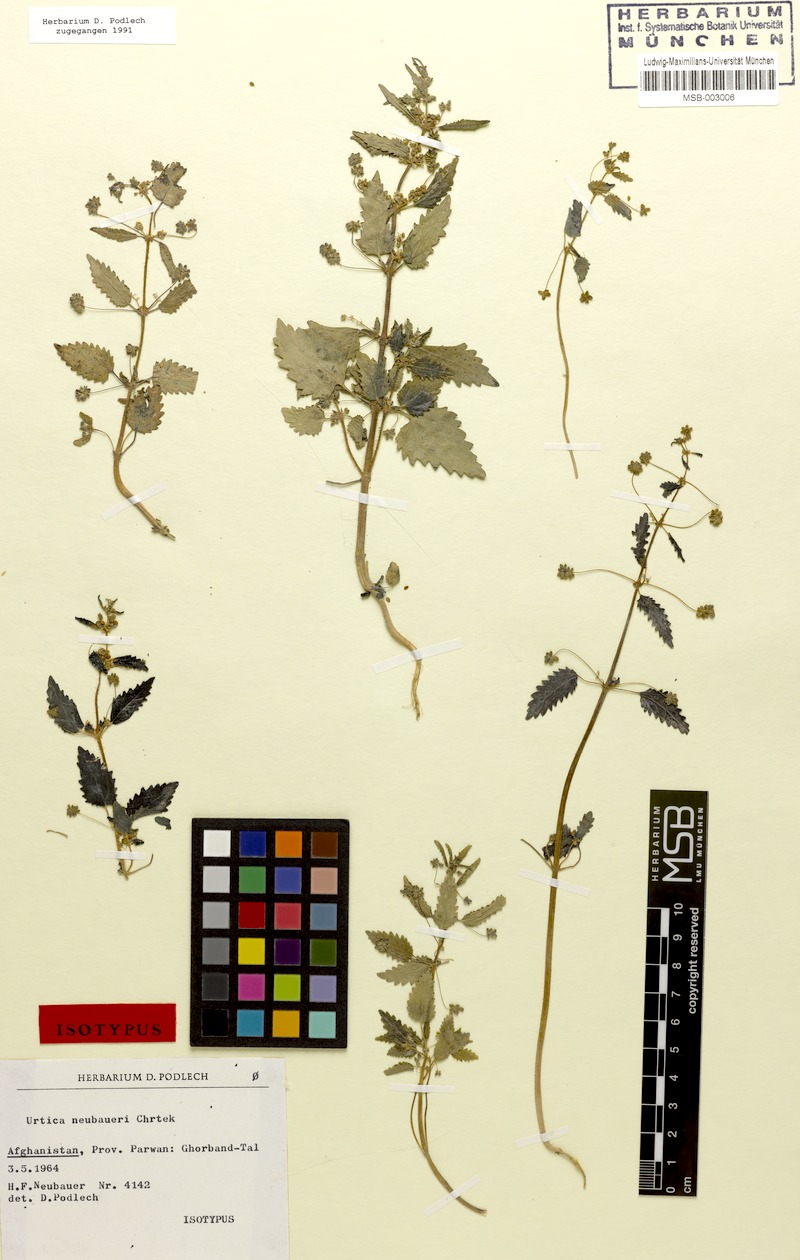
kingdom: Plantae
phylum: Tracheophyta
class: Magnoliopsida
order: Rosales
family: Urticaceae
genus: Urtica
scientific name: Urtica neubaueri
